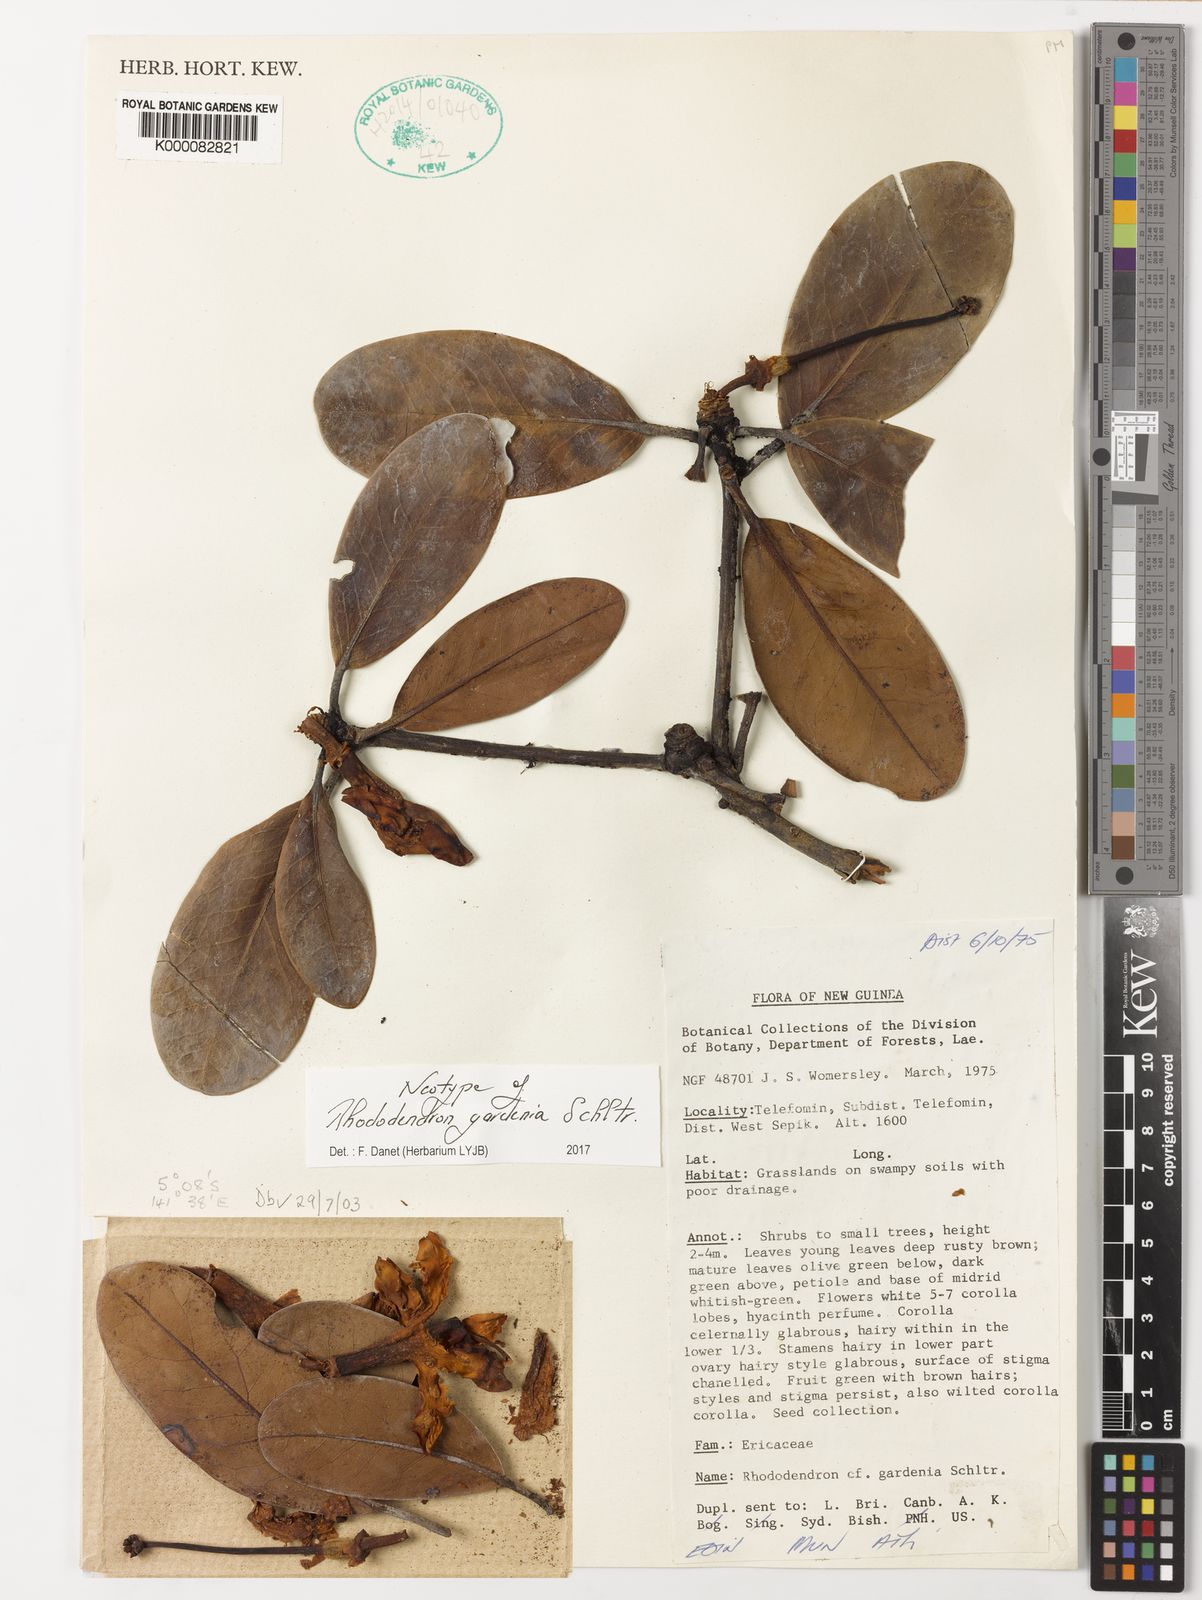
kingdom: Plantae
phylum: Tracheophyta
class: Magnoliopsida
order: Ericales
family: Ericaceae
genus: Rhododendron
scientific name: Rhododendron gardenia
